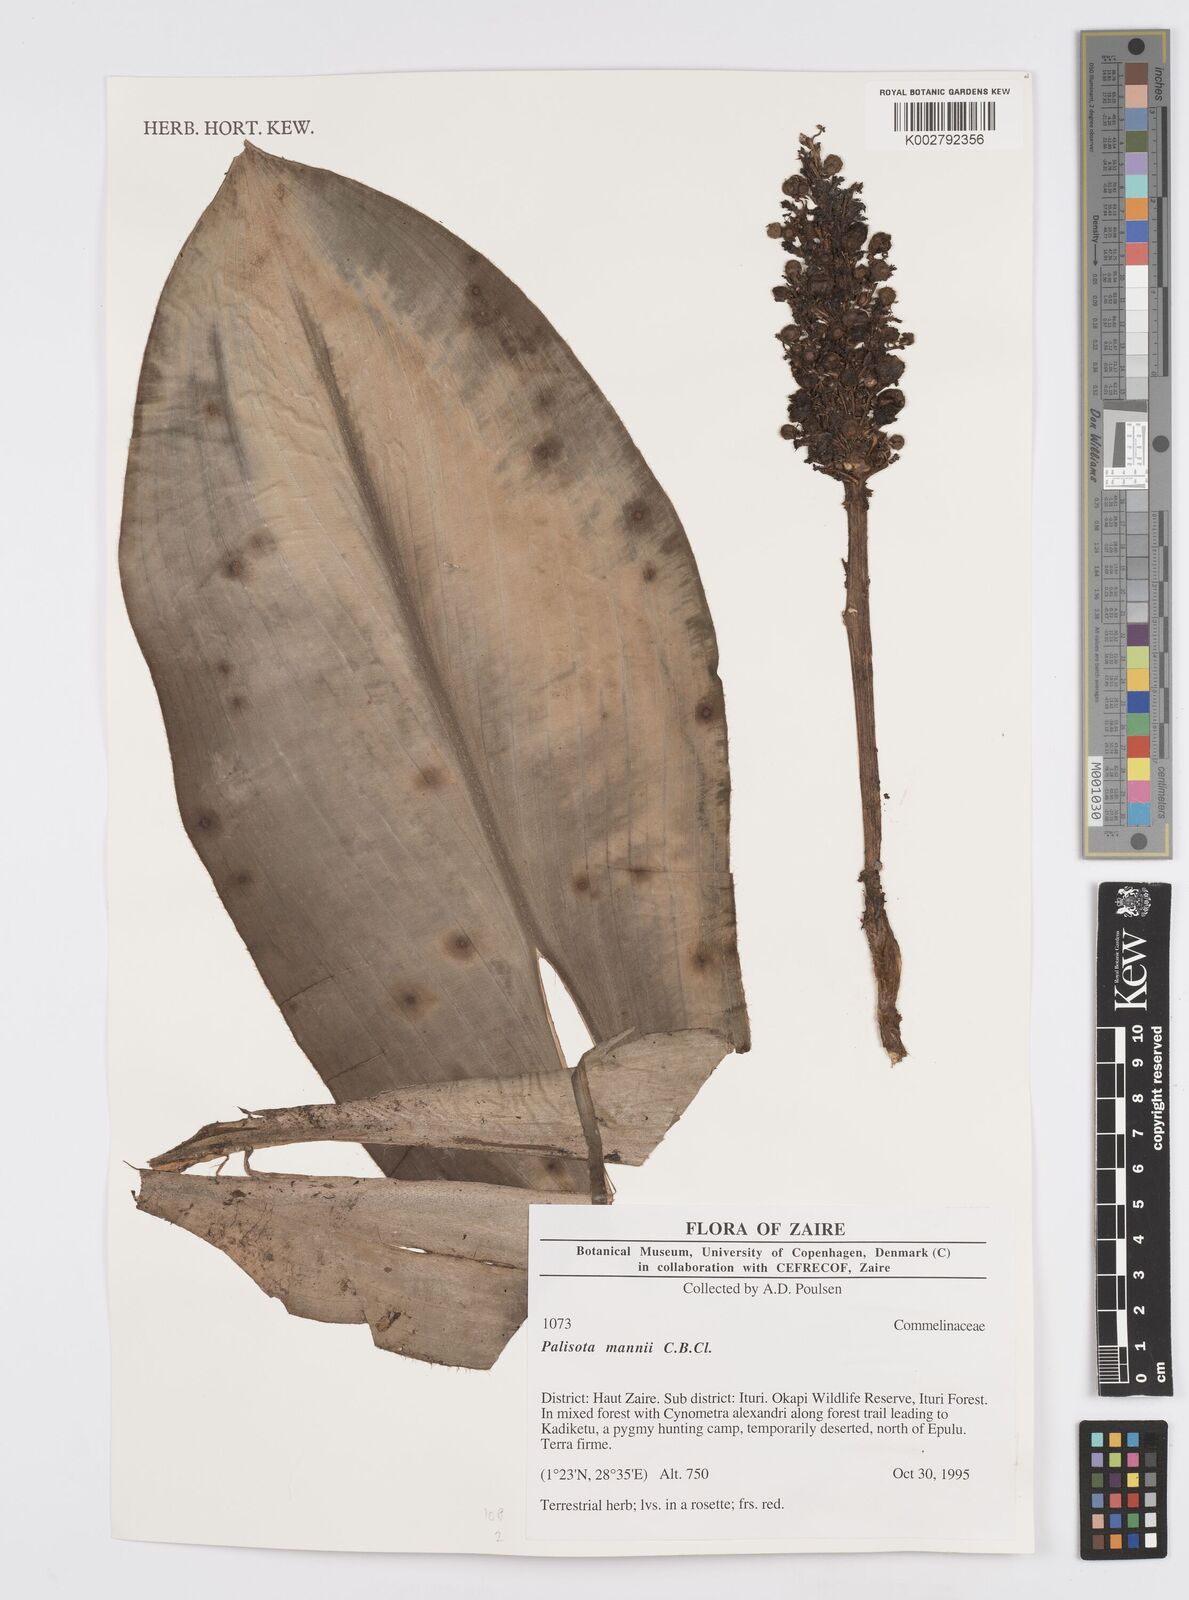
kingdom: Plantae
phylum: Tracheophyta
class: Liliopsida
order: Commelinales
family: Commelinaceae
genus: Palisota
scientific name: Palisota mannii
